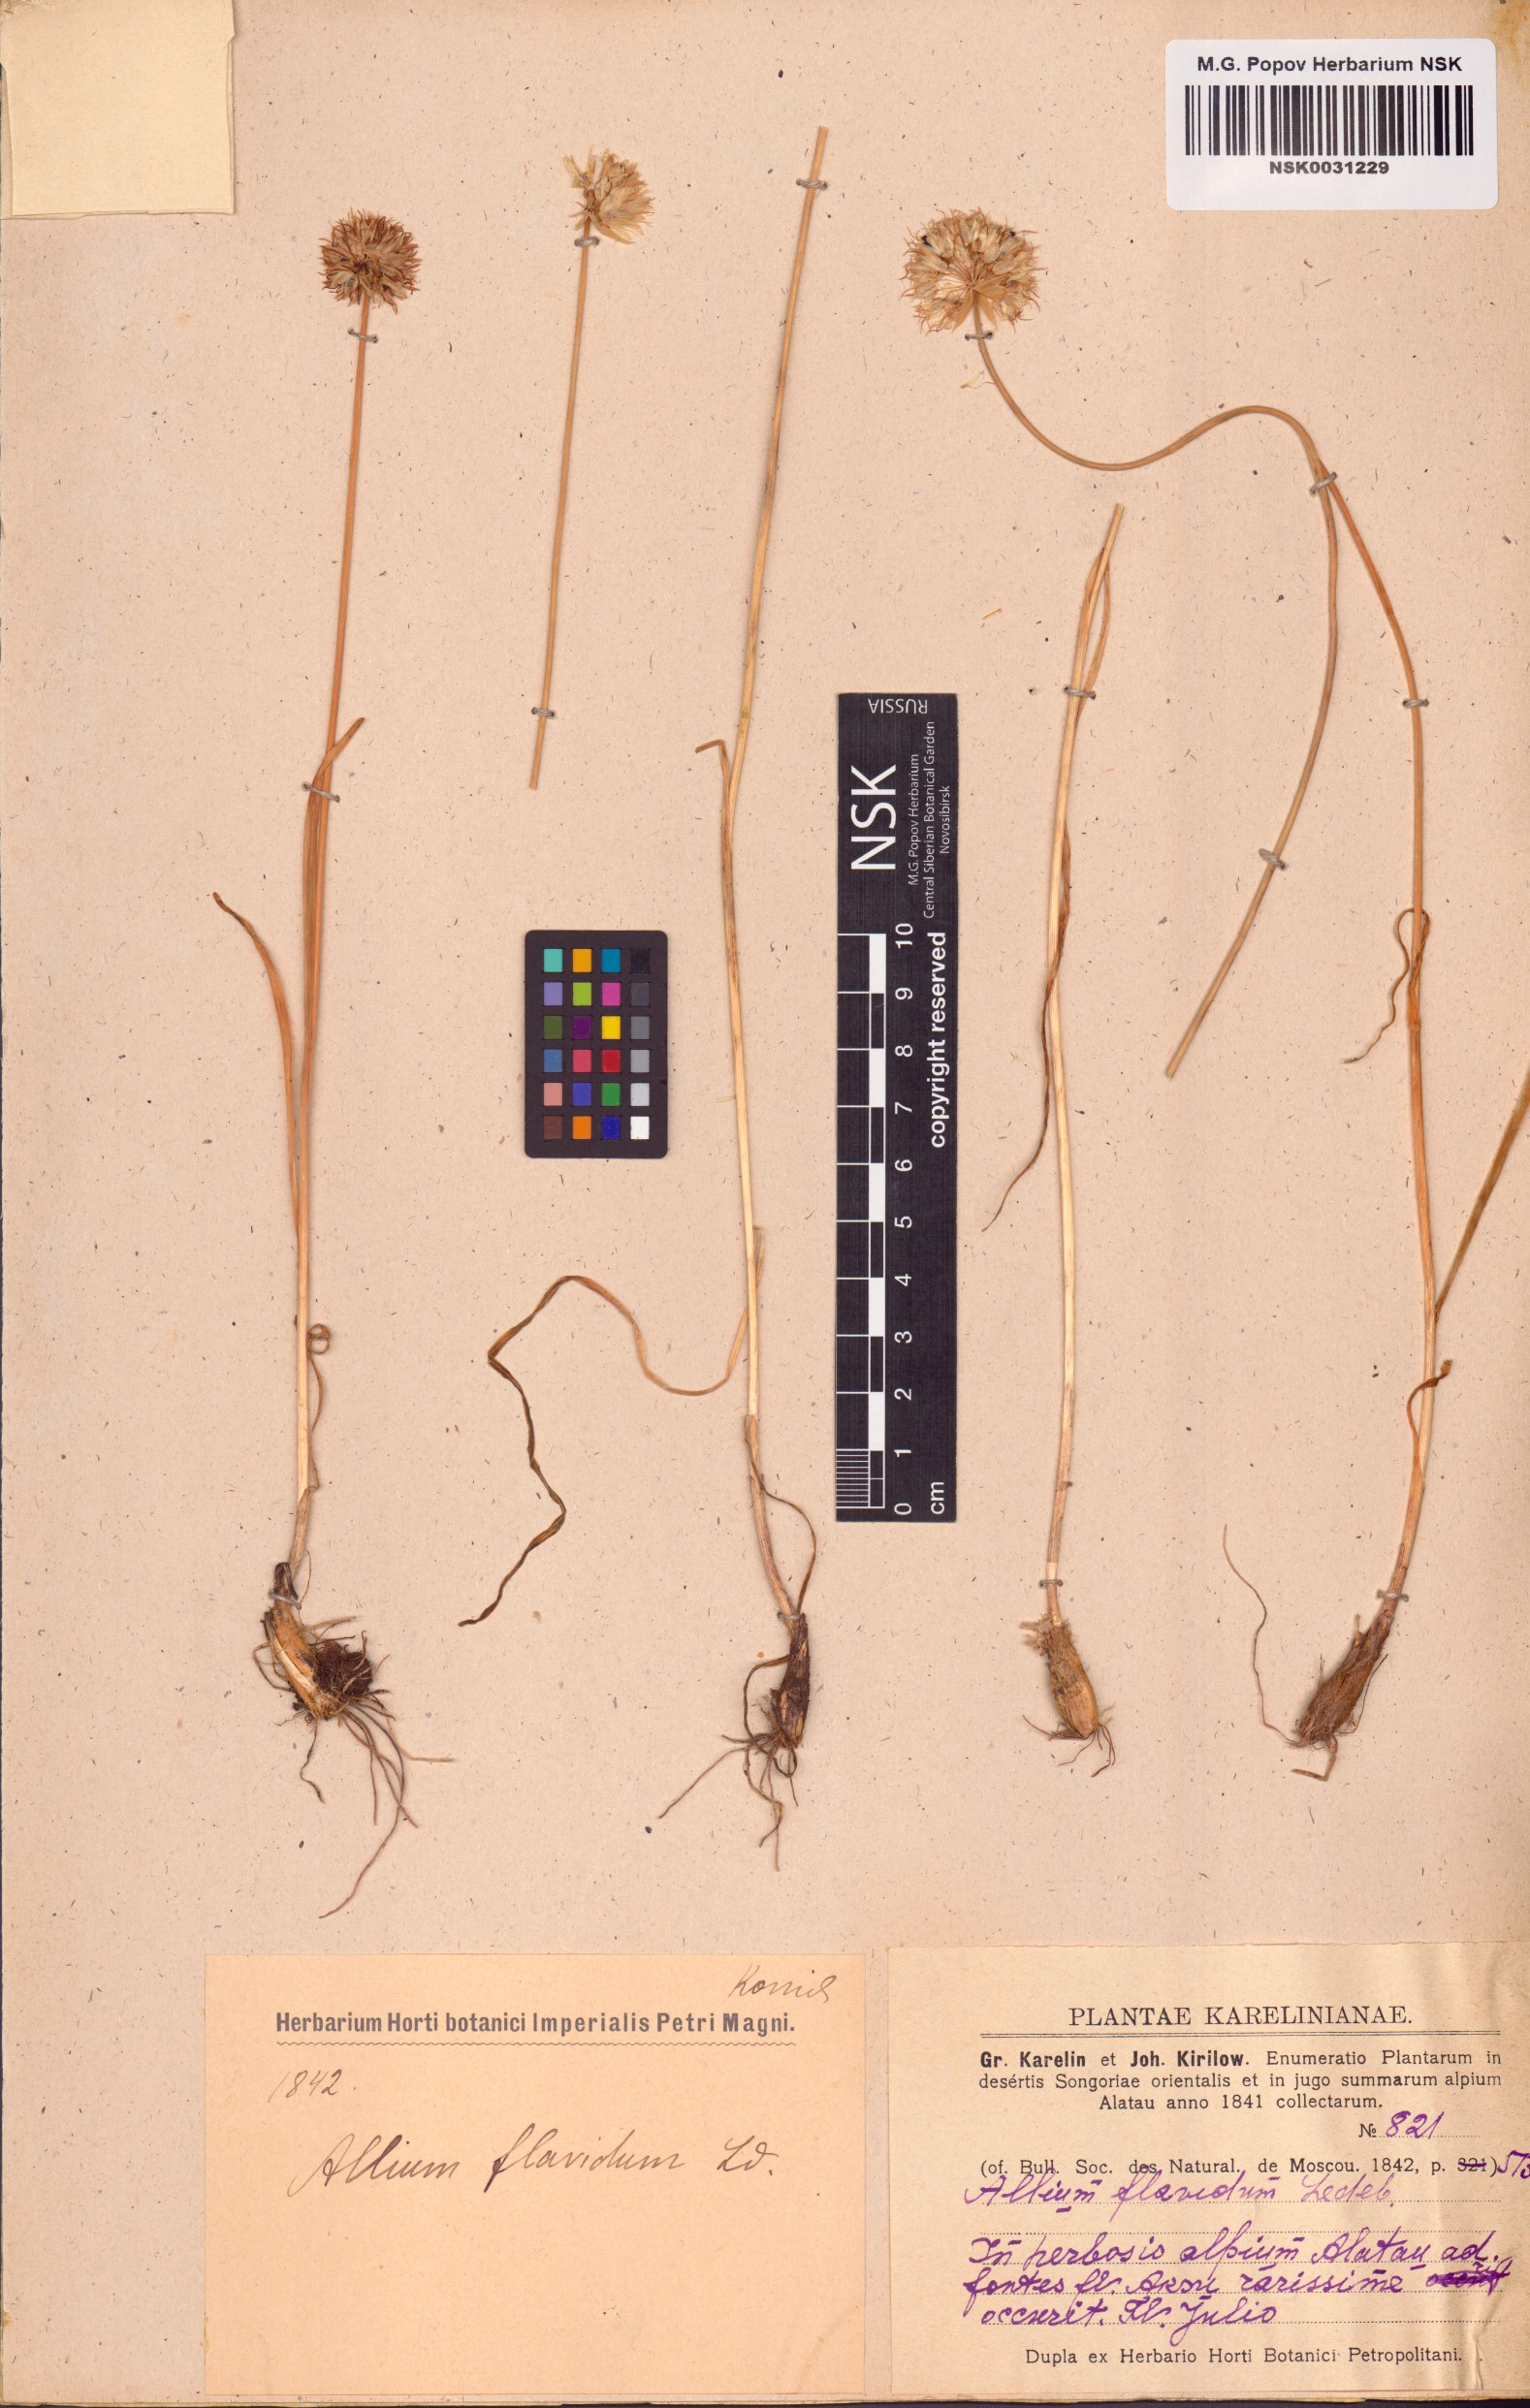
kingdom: Plantae
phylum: Tracheophyta
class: Liliopsida
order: Asparagales
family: Amaryllidaceae
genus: Allium
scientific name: Allium flavidum
